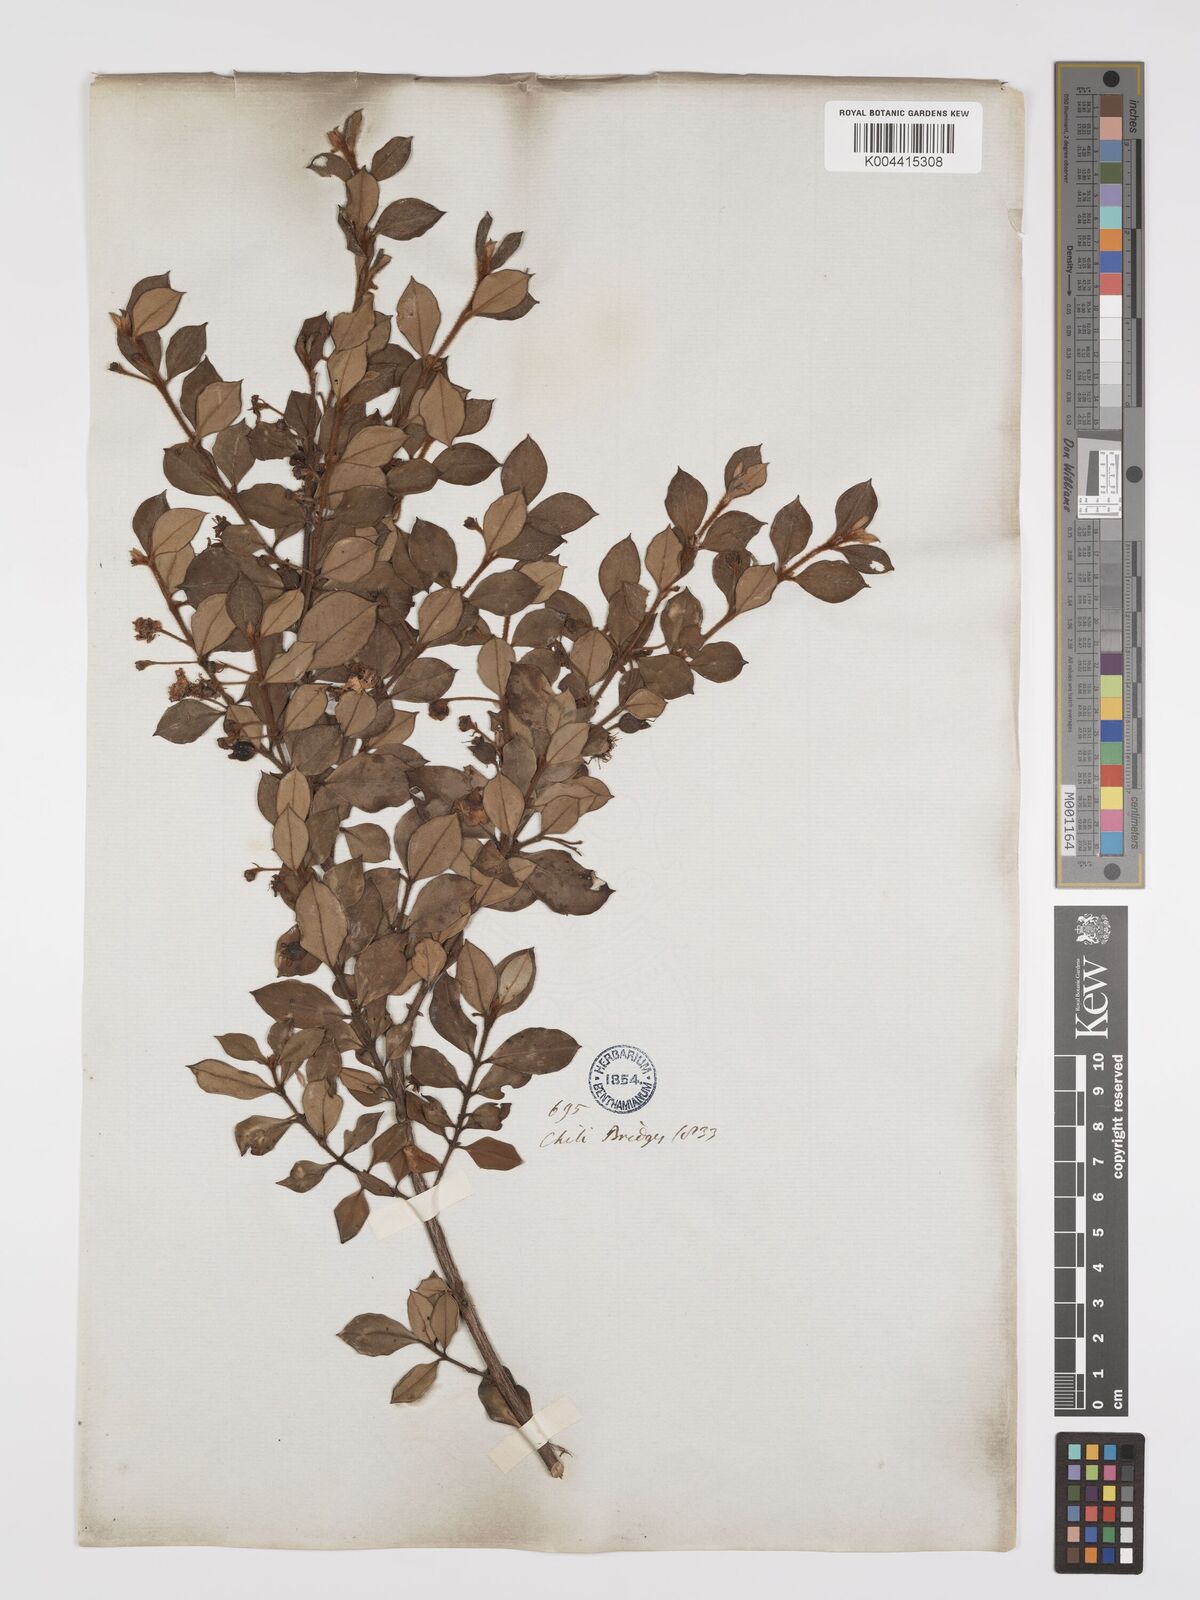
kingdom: Plantae
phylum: Tracheophyta
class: Magnoliopsida
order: Myrtales
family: Myrtaceae
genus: Ugni
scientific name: Ugni candollei
